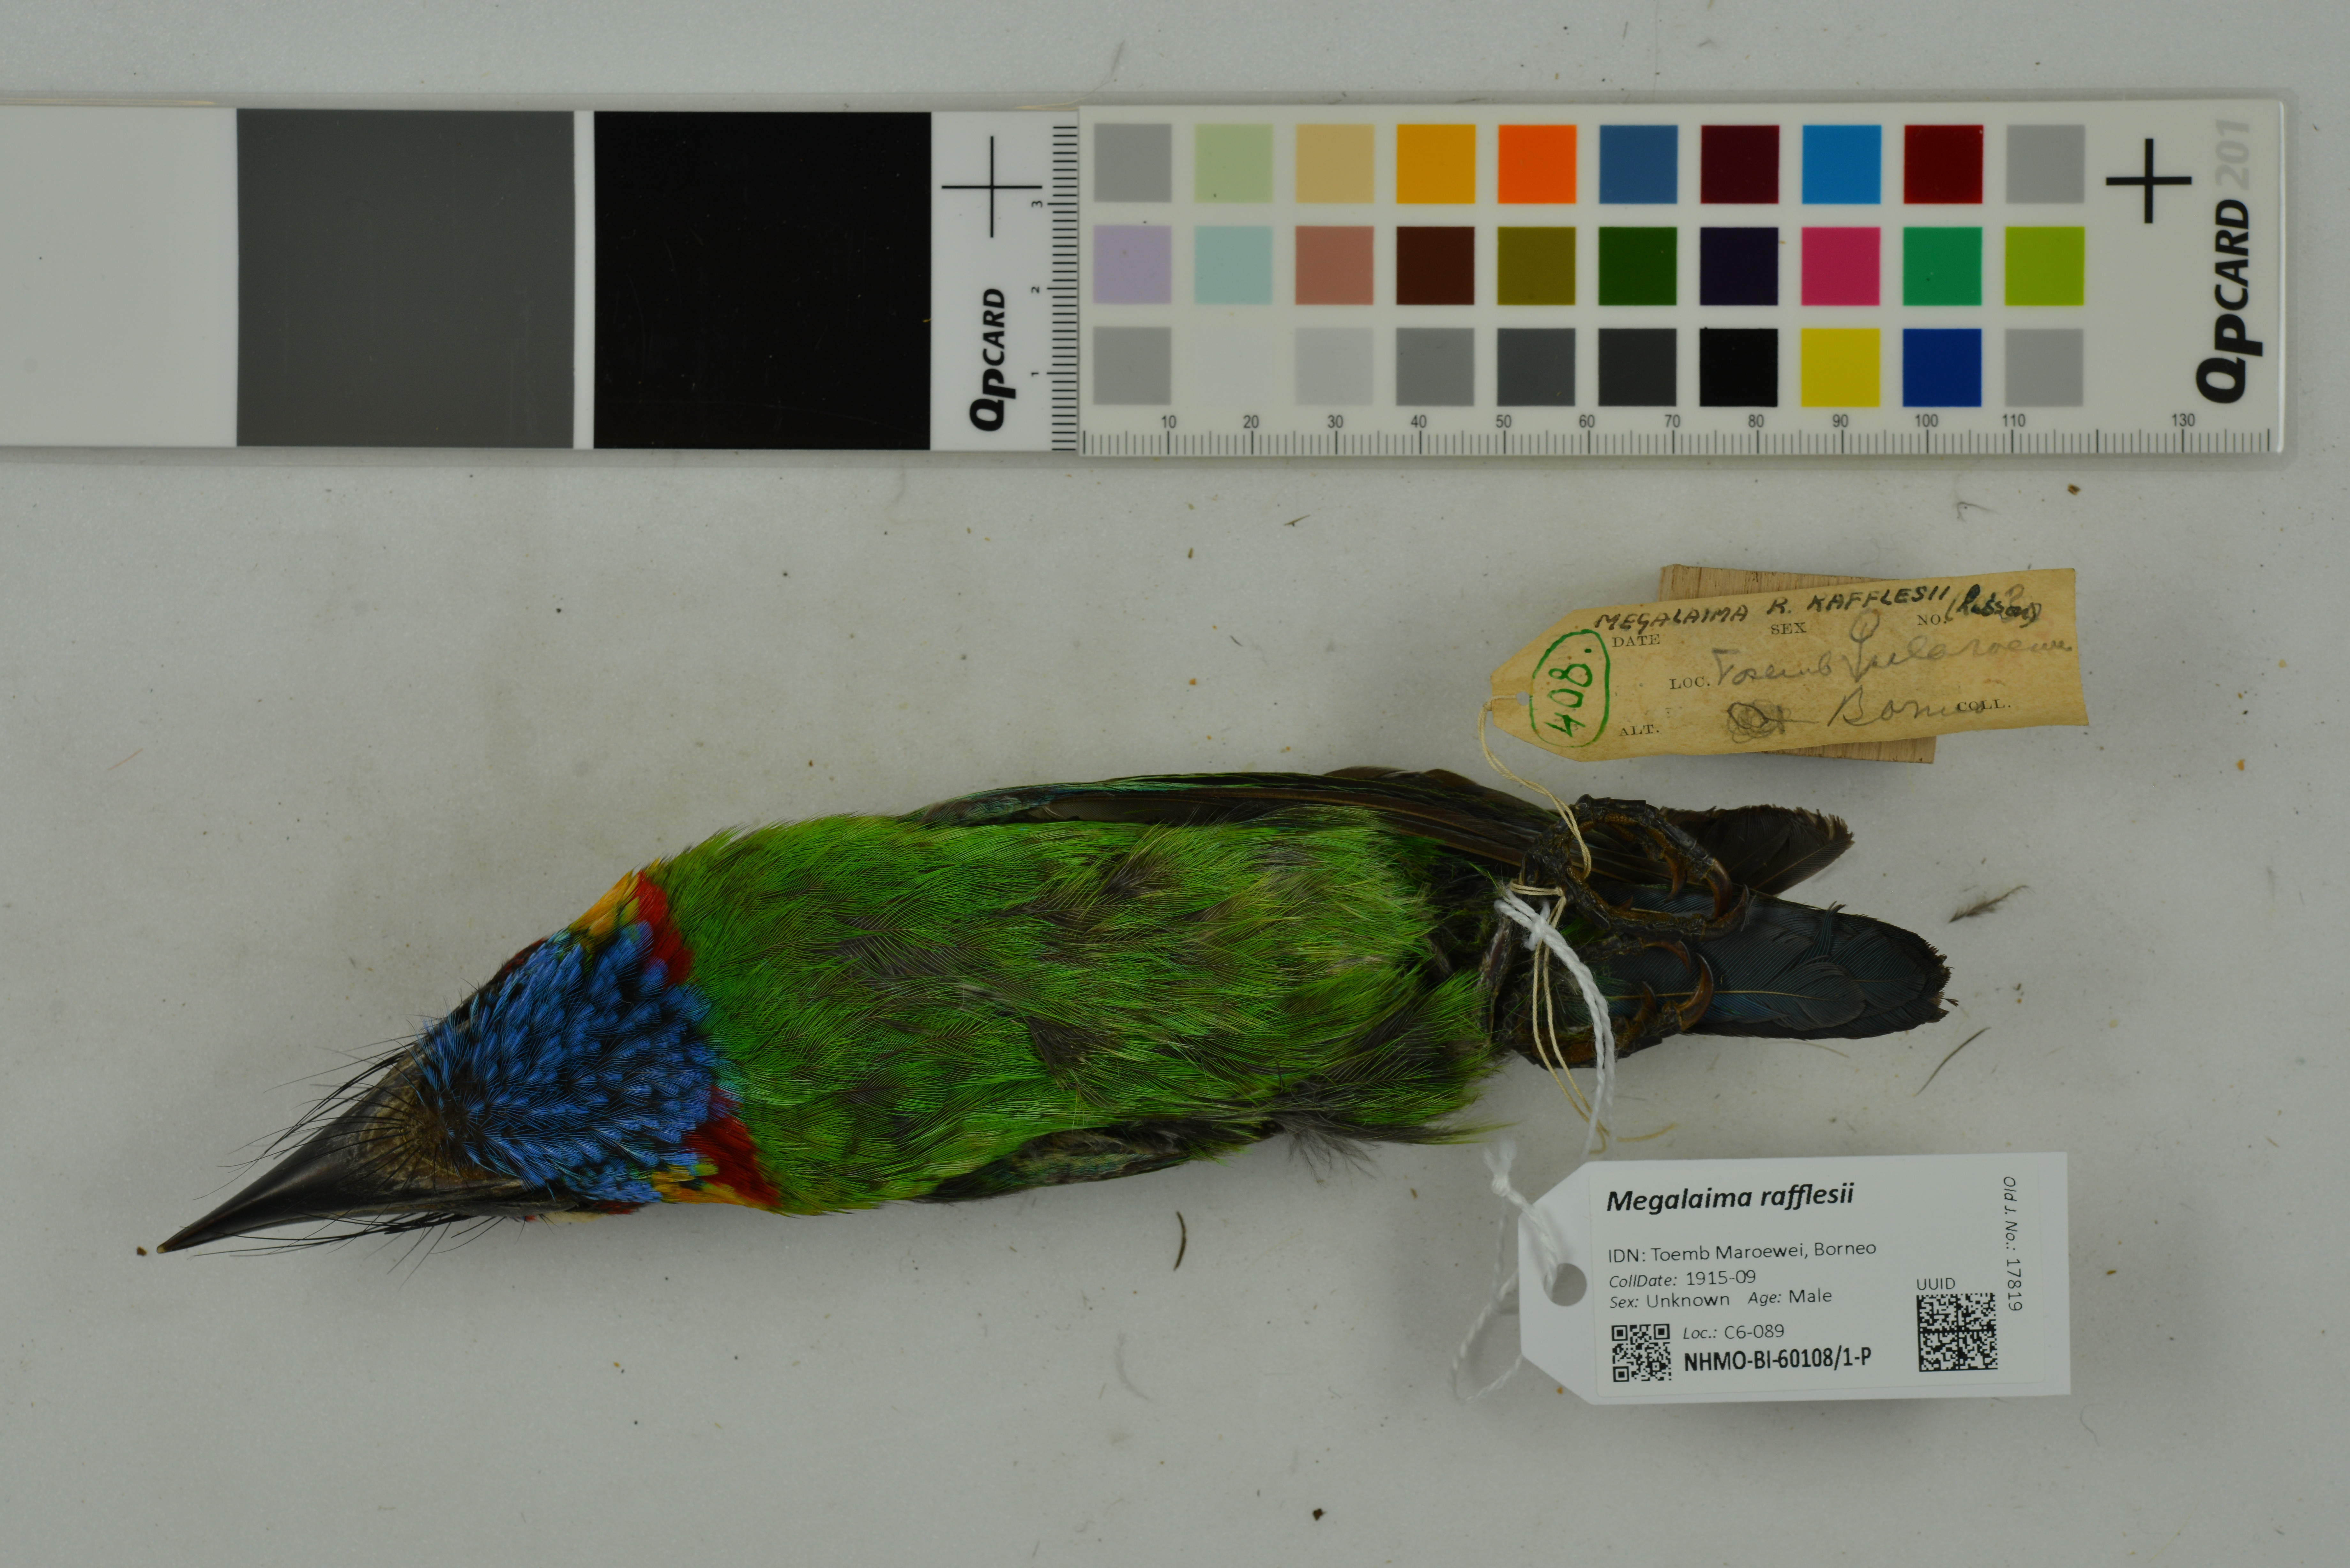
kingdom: Animalia
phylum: Chordata
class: Aves
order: Piciformes
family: Megalaimidae
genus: Psilopogon
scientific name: Psilopogon rafflesii
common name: Red-crowned barbet
